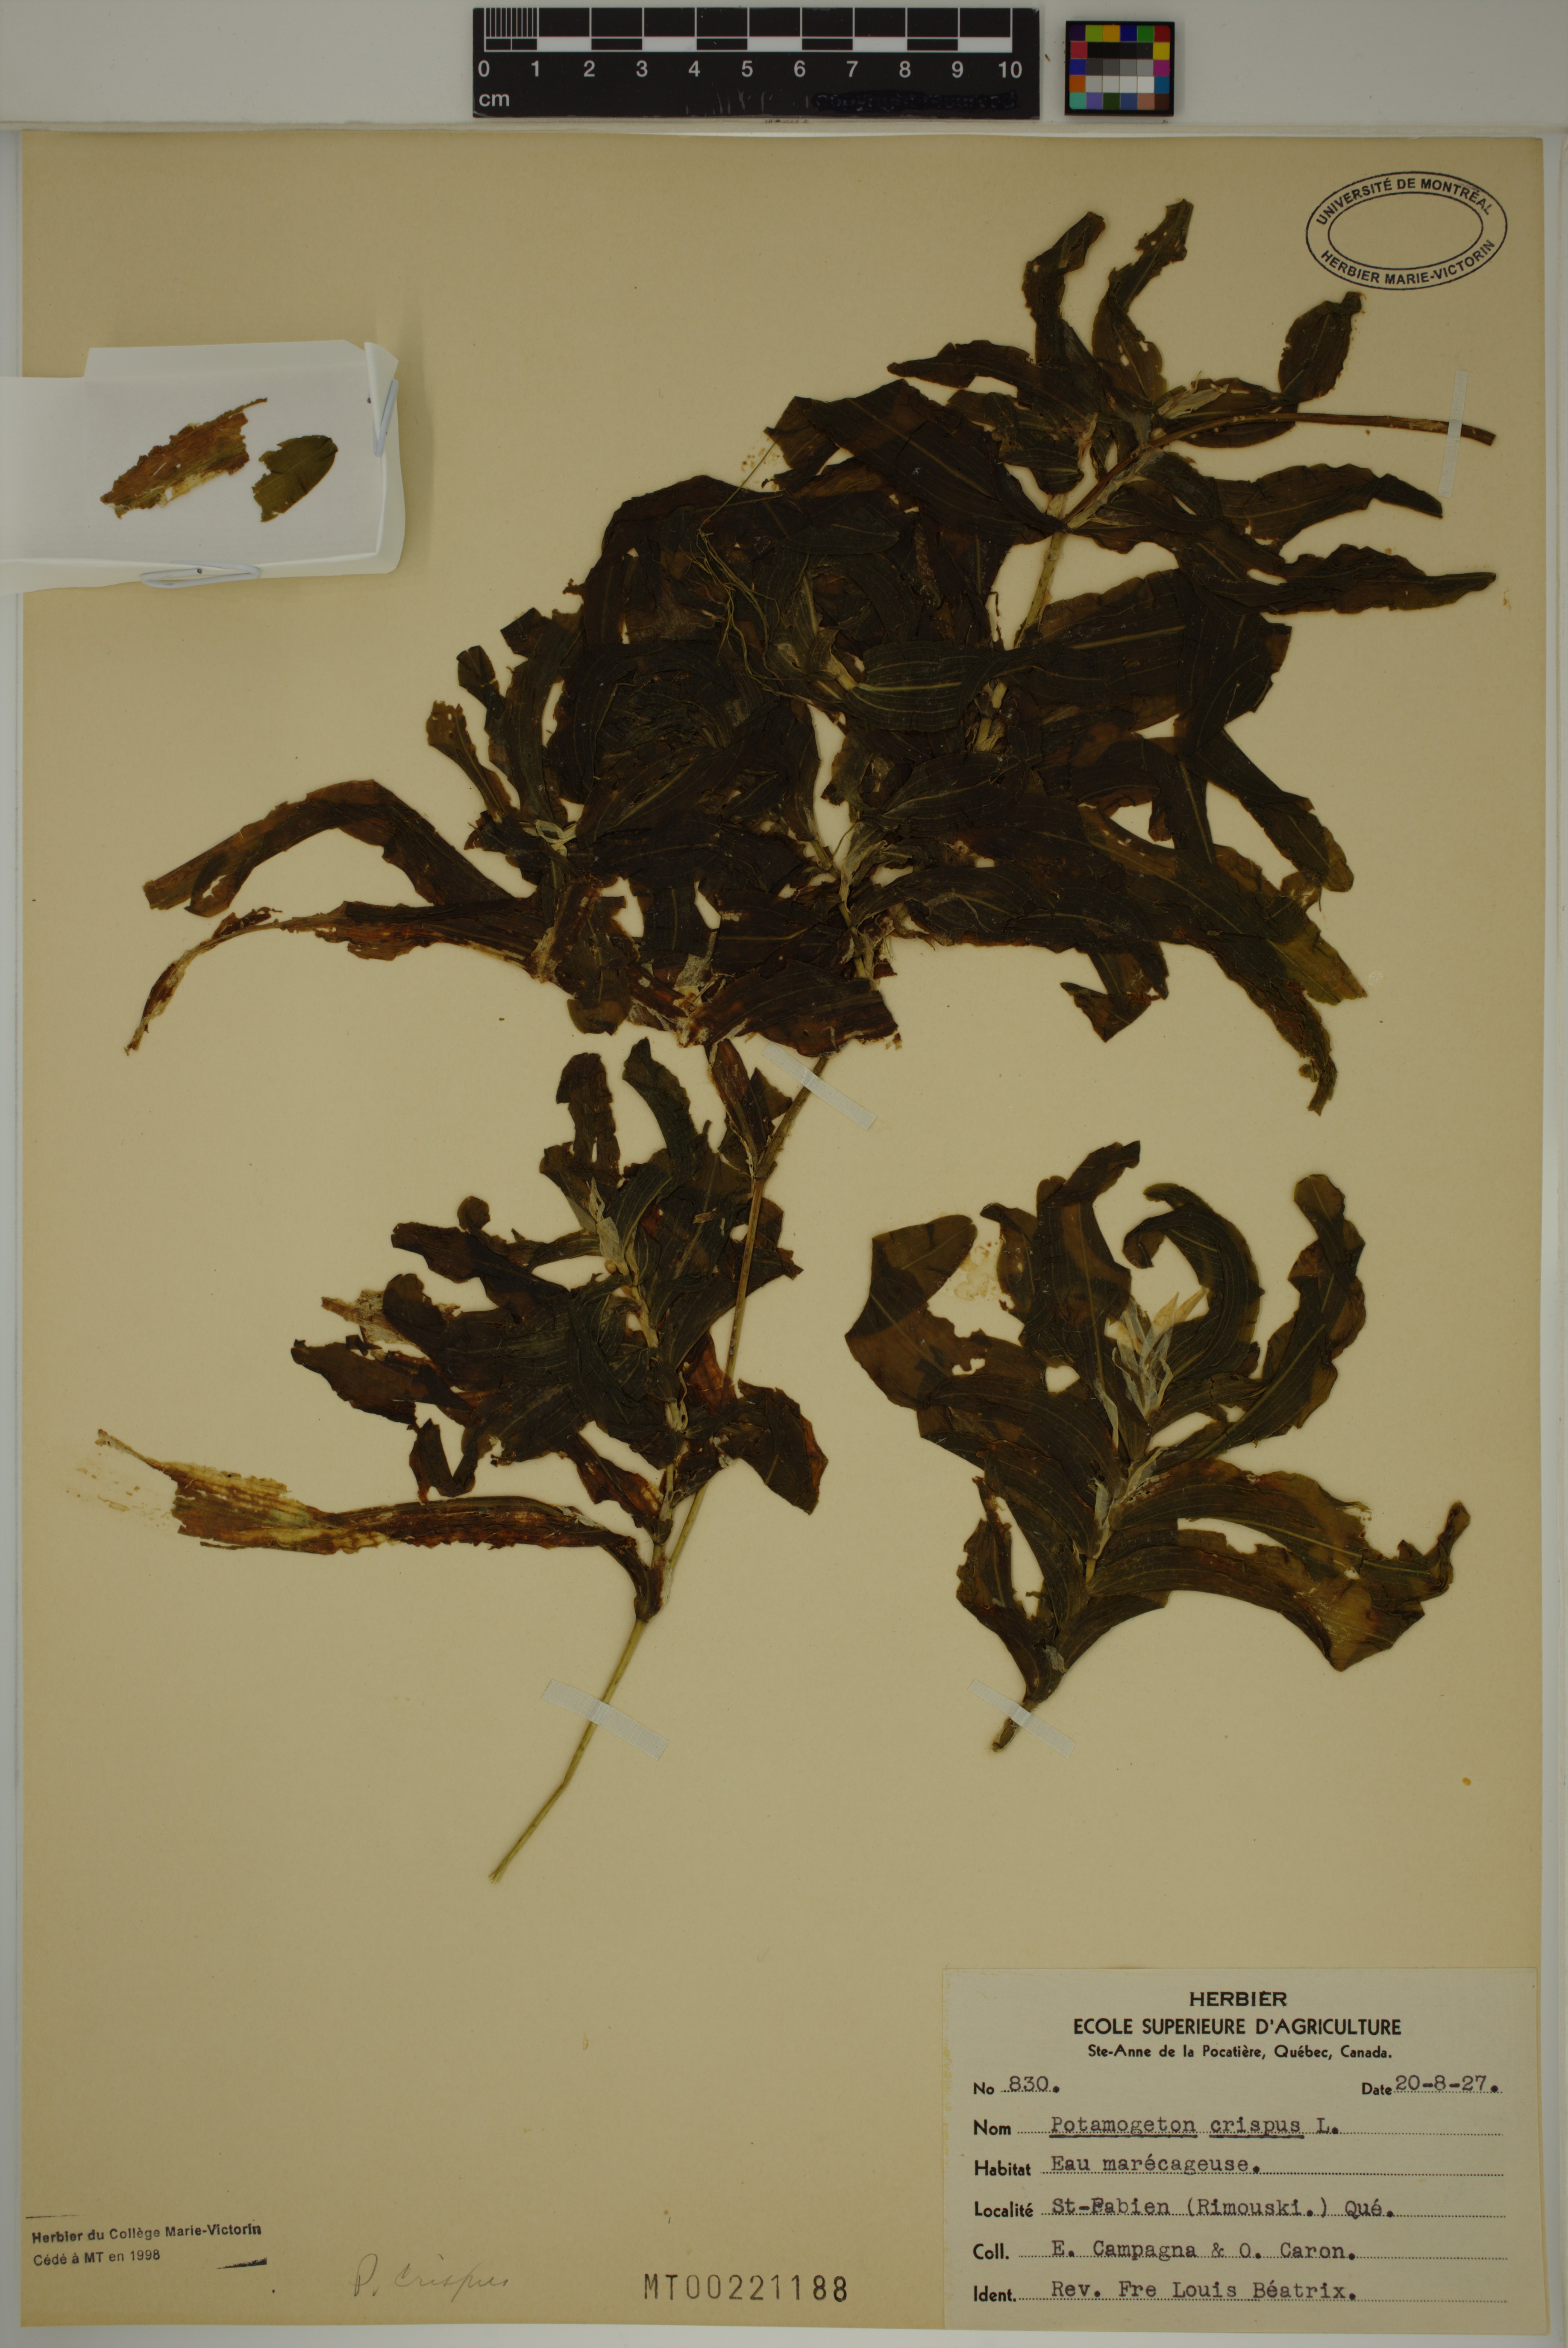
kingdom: Plantae
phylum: Tracheophyta
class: Liliopsida
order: Alismatales
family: Potamogetonaceae
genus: Potamogeton
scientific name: Potamogeton crispus
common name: Curled pondweed
